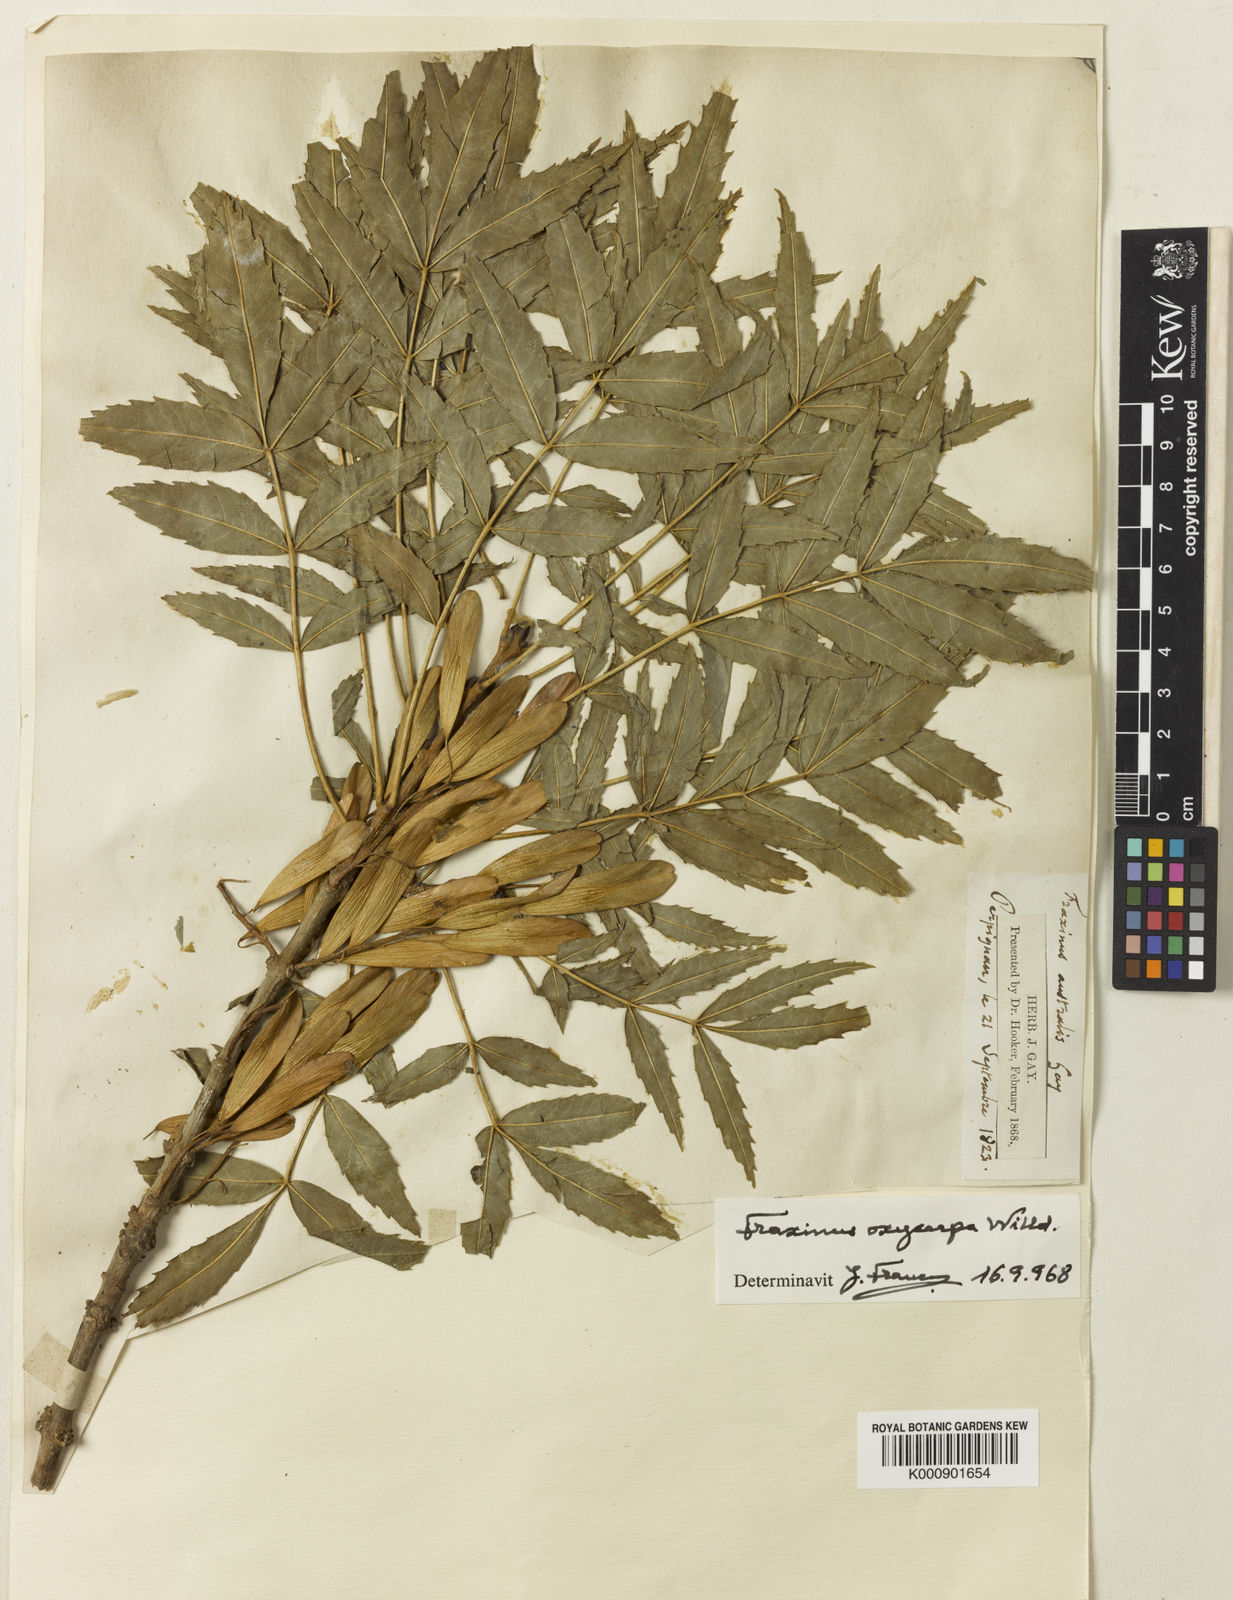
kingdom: Plantae
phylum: Tracheophyta
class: Magnoliopsida
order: Lamiales
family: Oleaceae
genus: Fraxinus
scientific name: Fraxinus angustifolia
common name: Narrow-leafed ash
